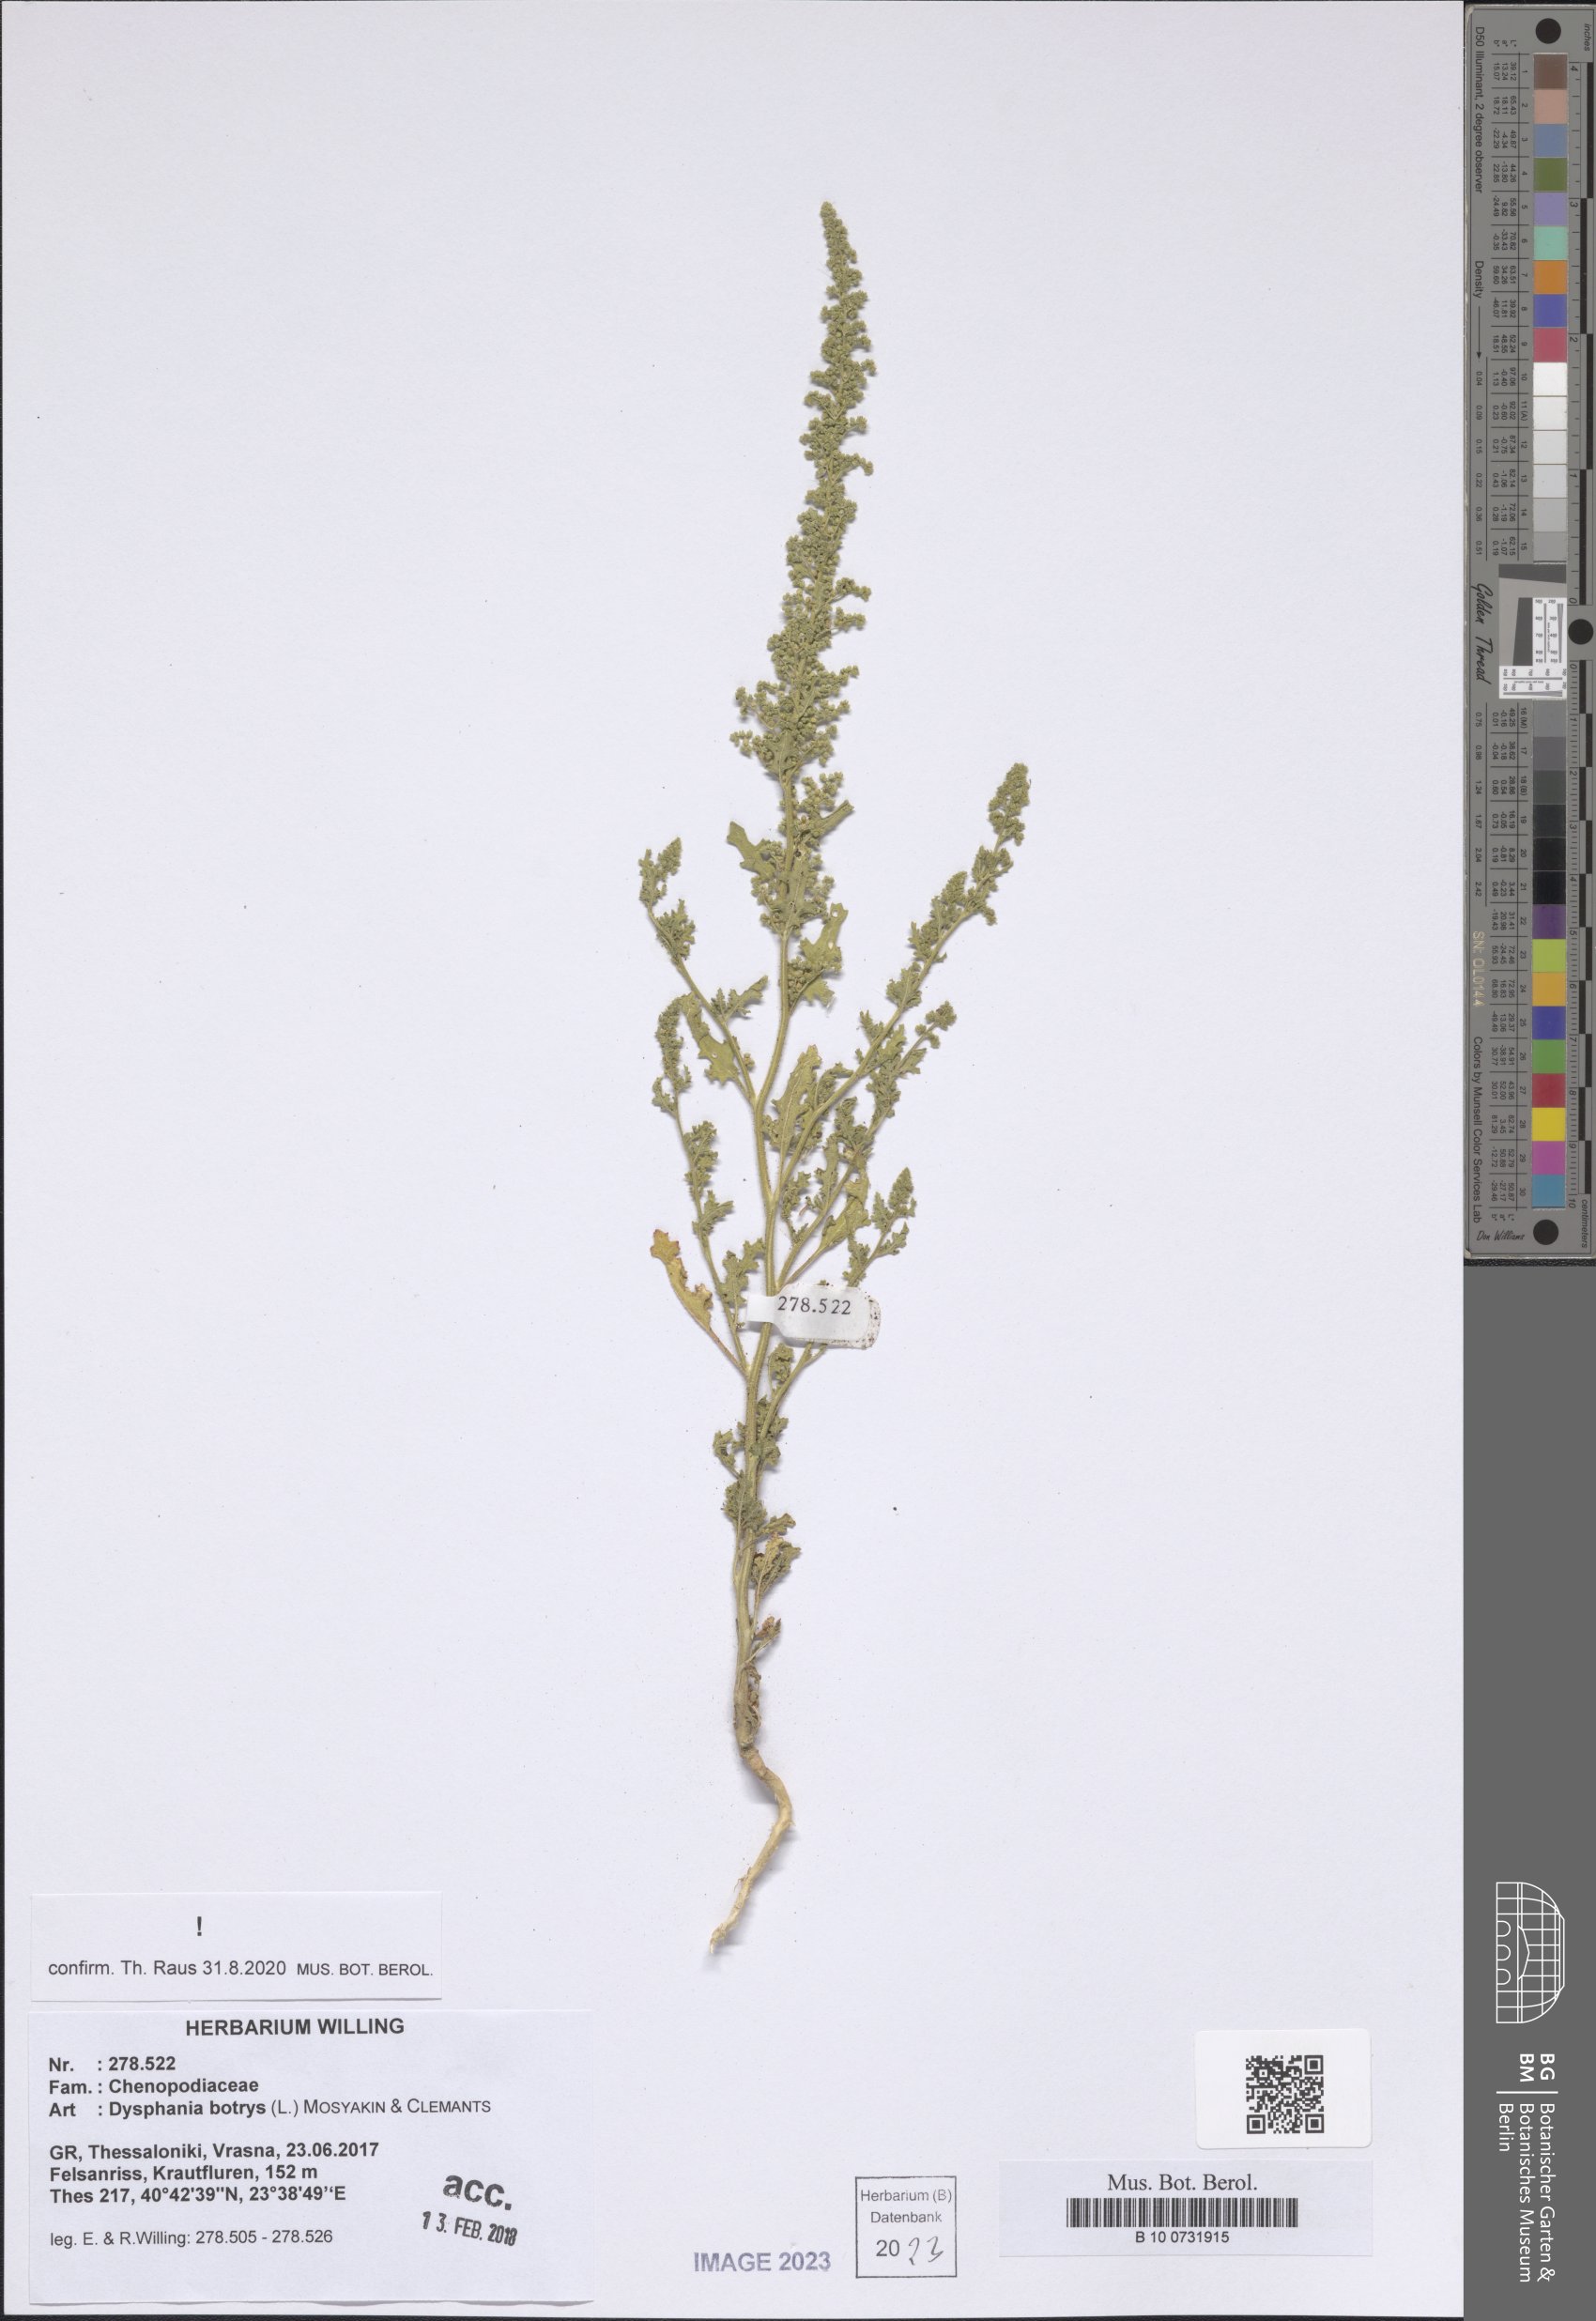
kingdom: Plantae
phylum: Tracheophyta
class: Magnoliopsida
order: Caryophyllales
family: Amaranthaceae
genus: Dysphania
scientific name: Dysphania botrys
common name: Feather-geranium
